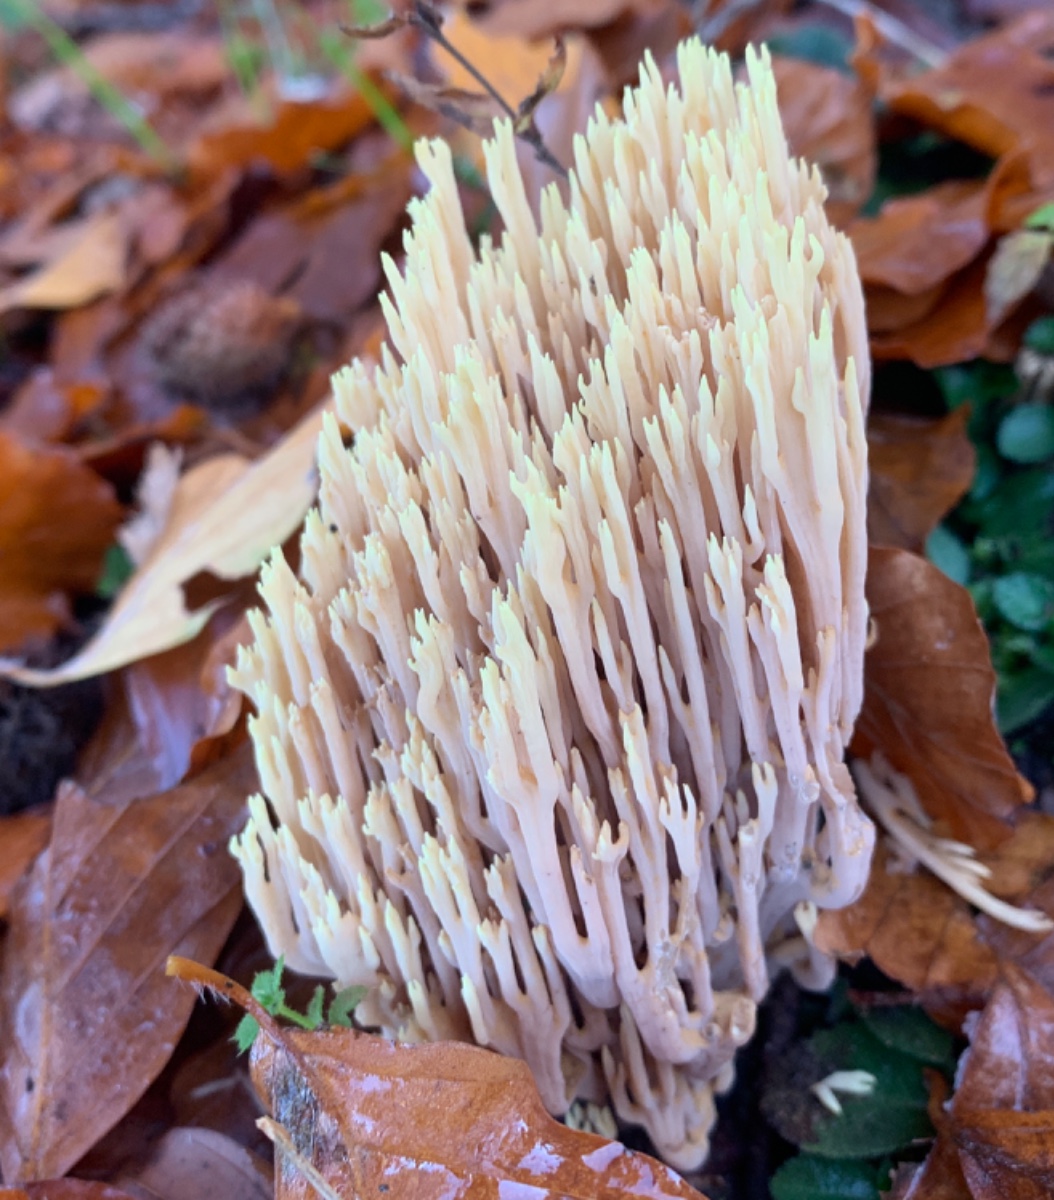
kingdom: Fungi
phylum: Basidiomycota
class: Agaricomycetes
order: Gomphales
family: Gomphaceae
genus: Ramaria
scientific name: Ramaria stricta
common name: rank koralsvamp
